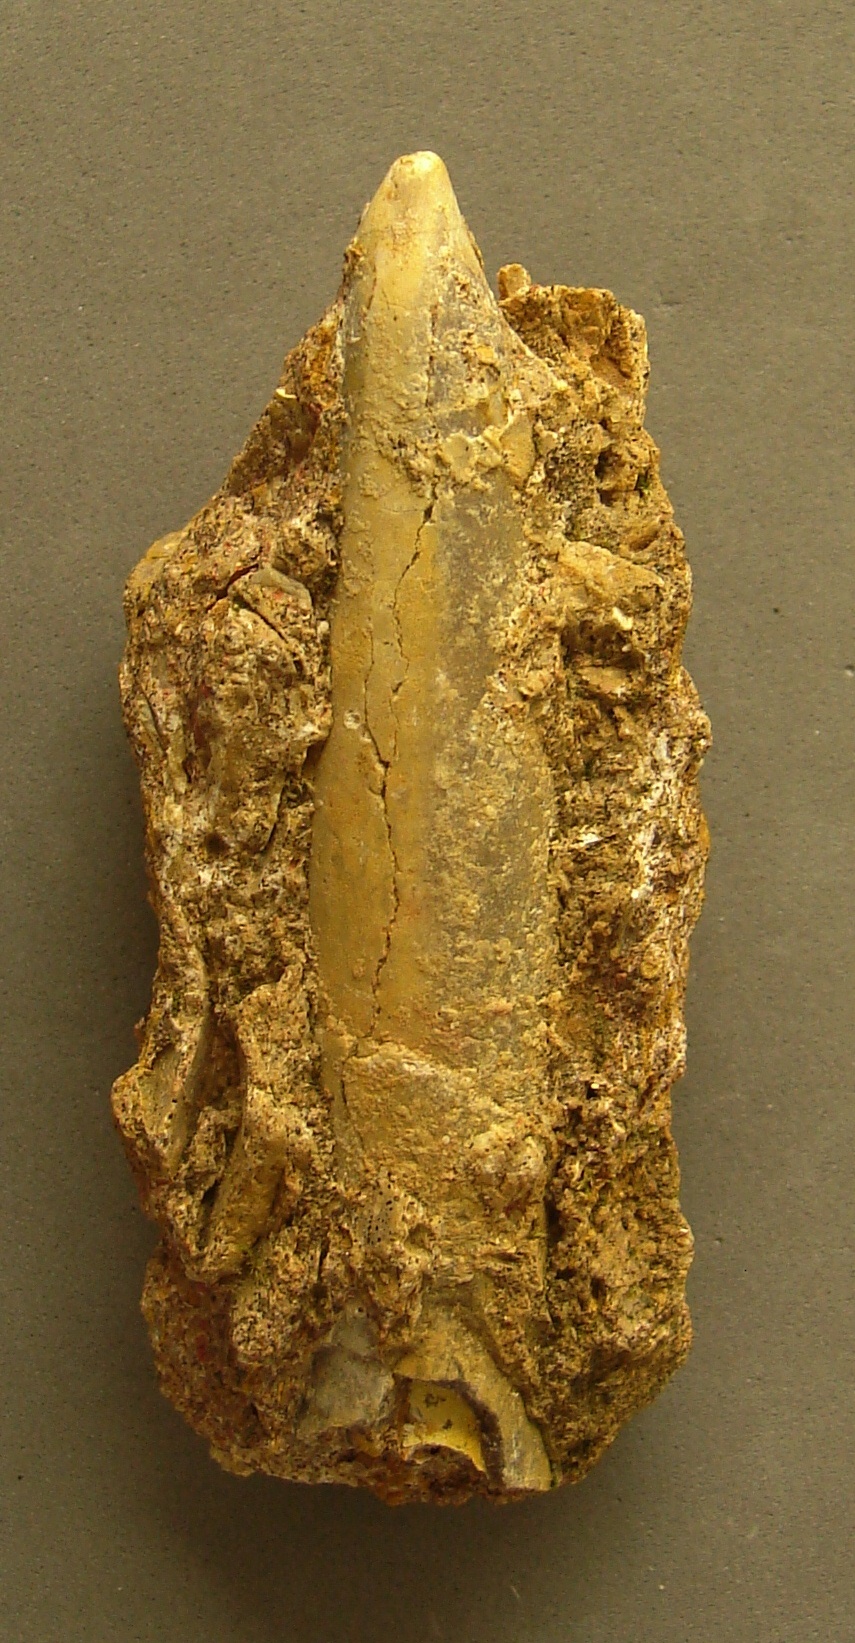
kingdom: Animalia
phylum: Mollusca
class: Cephalopoda
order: Belemnitida
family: Passaloteuthidae
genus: Brevibelus
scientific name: Brevibelus breviformis
